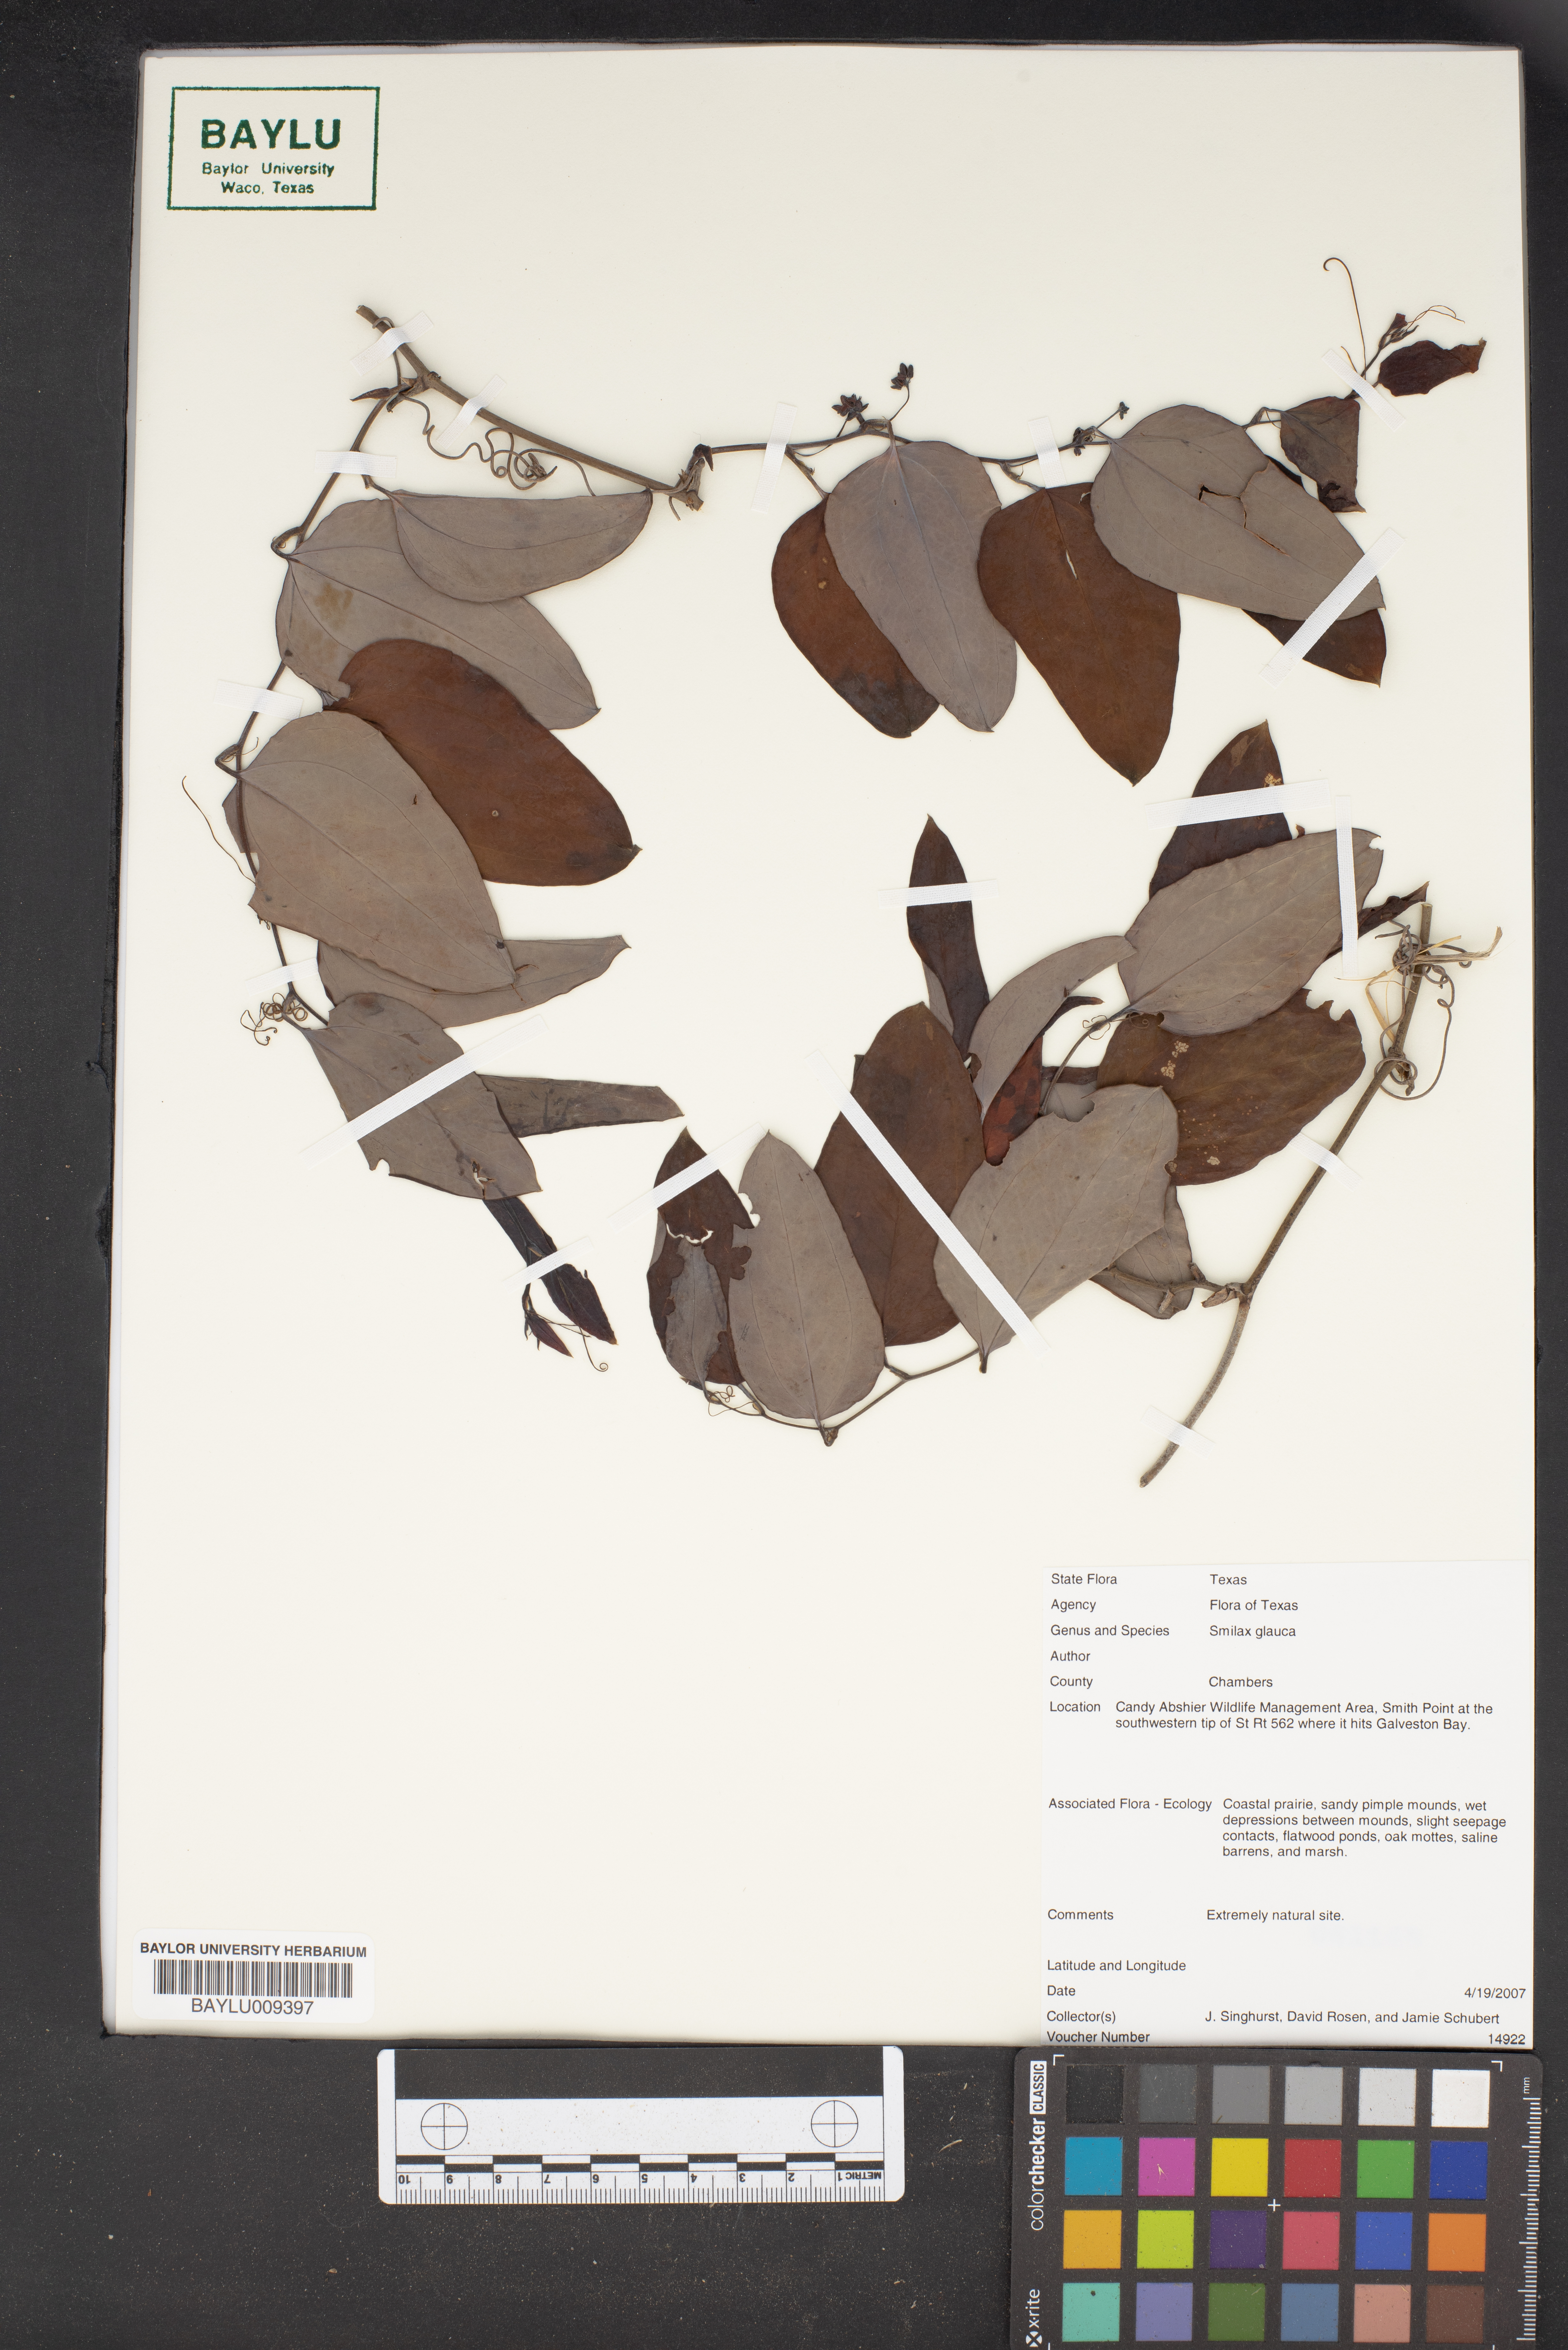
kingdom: Plantae
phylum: Tracheophyta
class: Liliopsida
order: Liliales
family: Smilacaceae
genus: Smilax
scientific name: Smilax glauca
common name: Cat greenbrier
